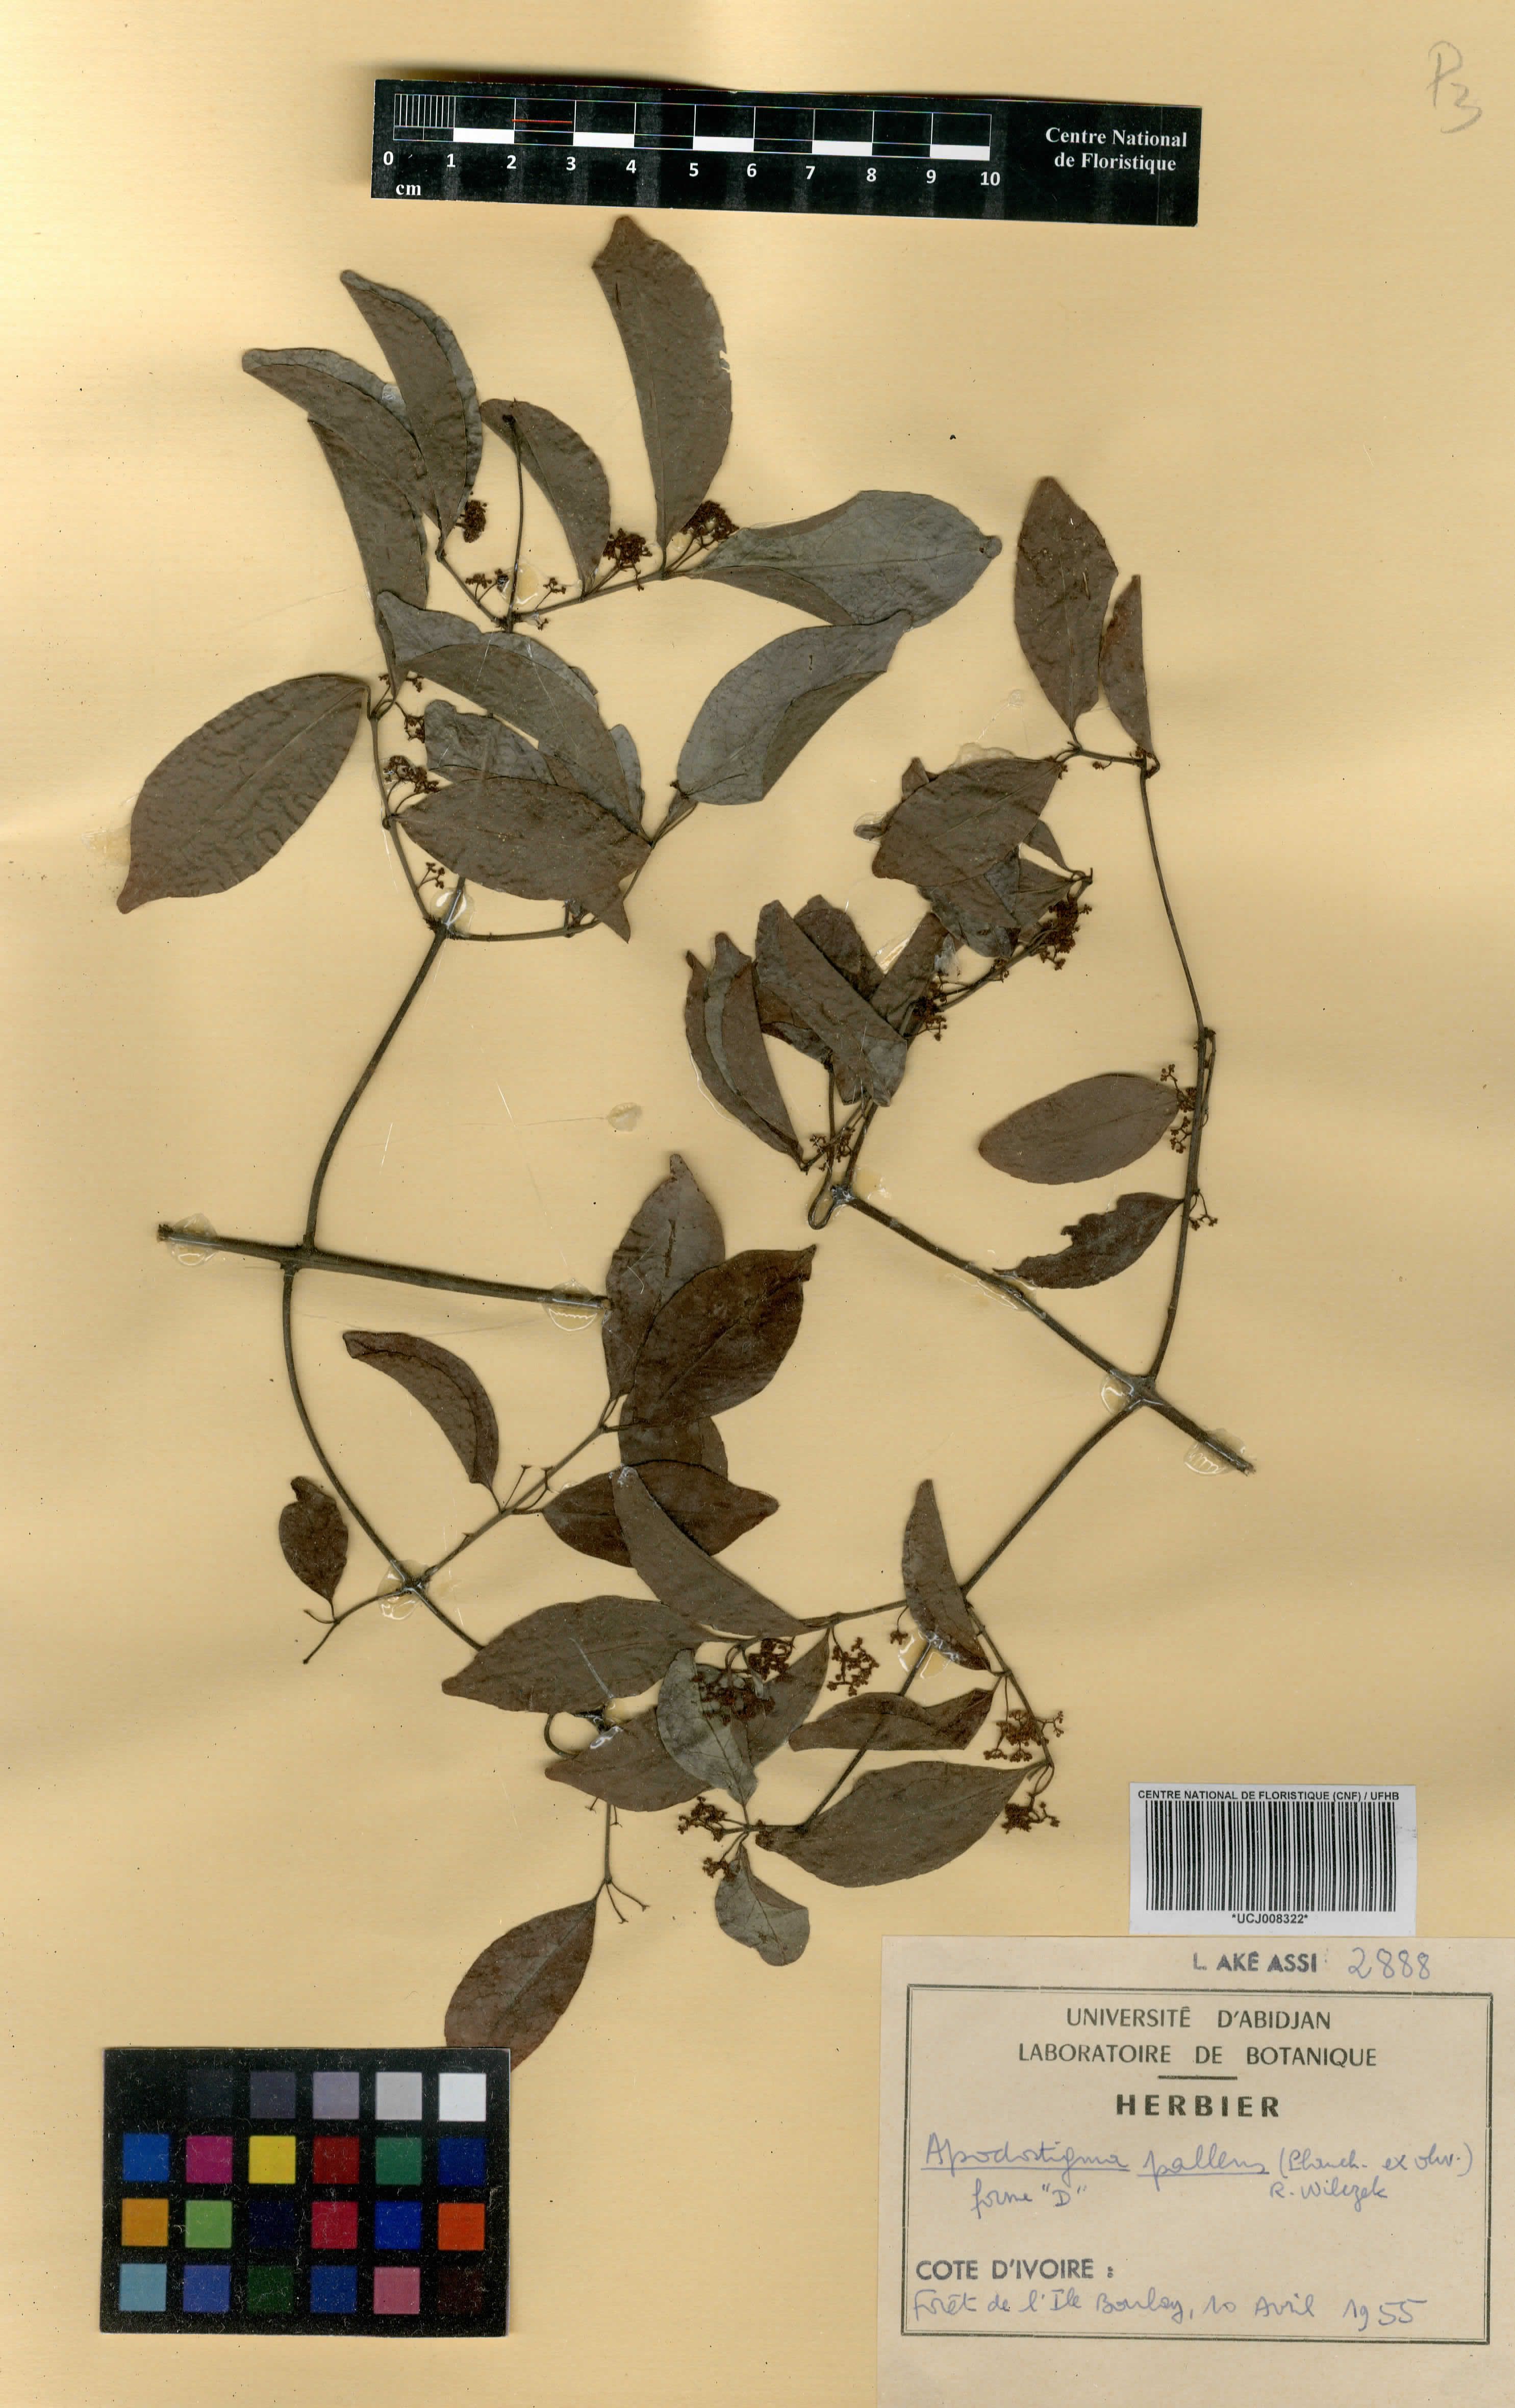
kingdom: Plantae
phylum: Tracheophyta
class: Magnoliopsida
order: Celastrales
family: Celastraceae
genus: Apodostigma
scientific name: Apodostigma pallens
